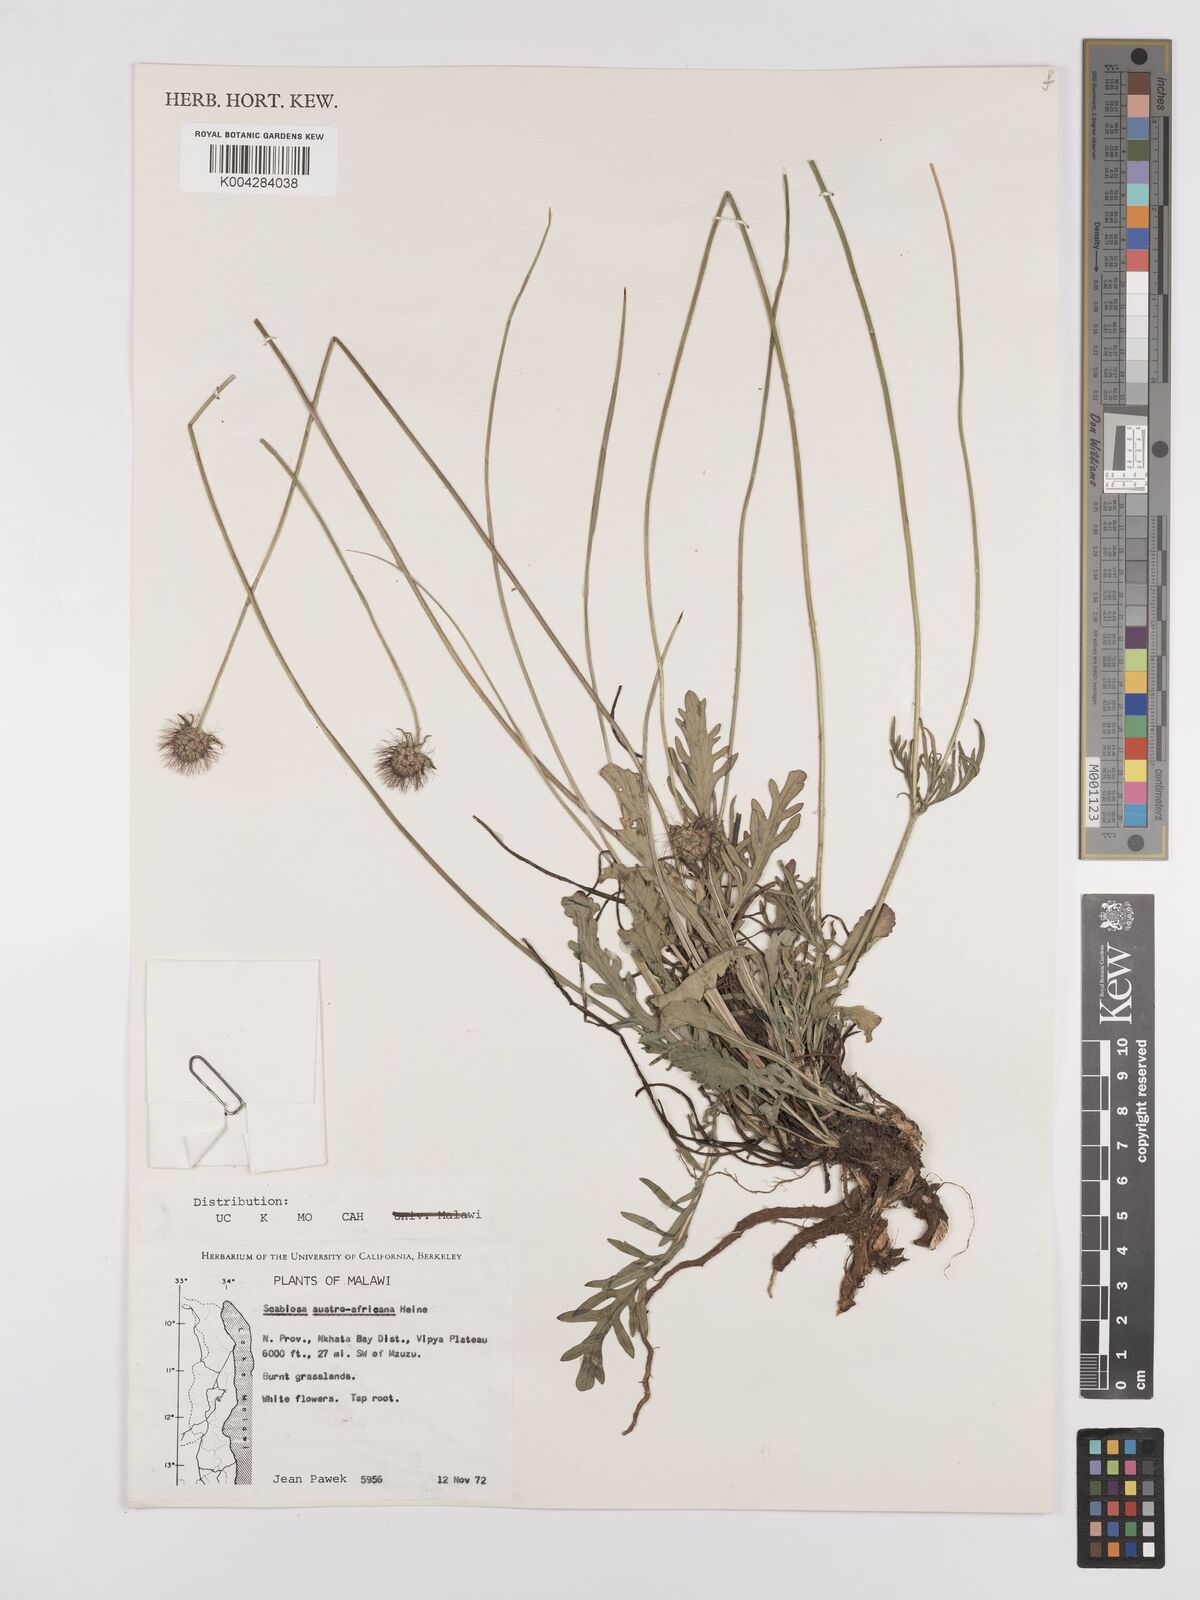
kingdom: Plantae
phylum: Tracheophyta
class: Magnoliopsida
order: Dipsacales
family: Caprifoliaceae
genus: Scabiosa
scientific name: Scabiosa austroafricana
